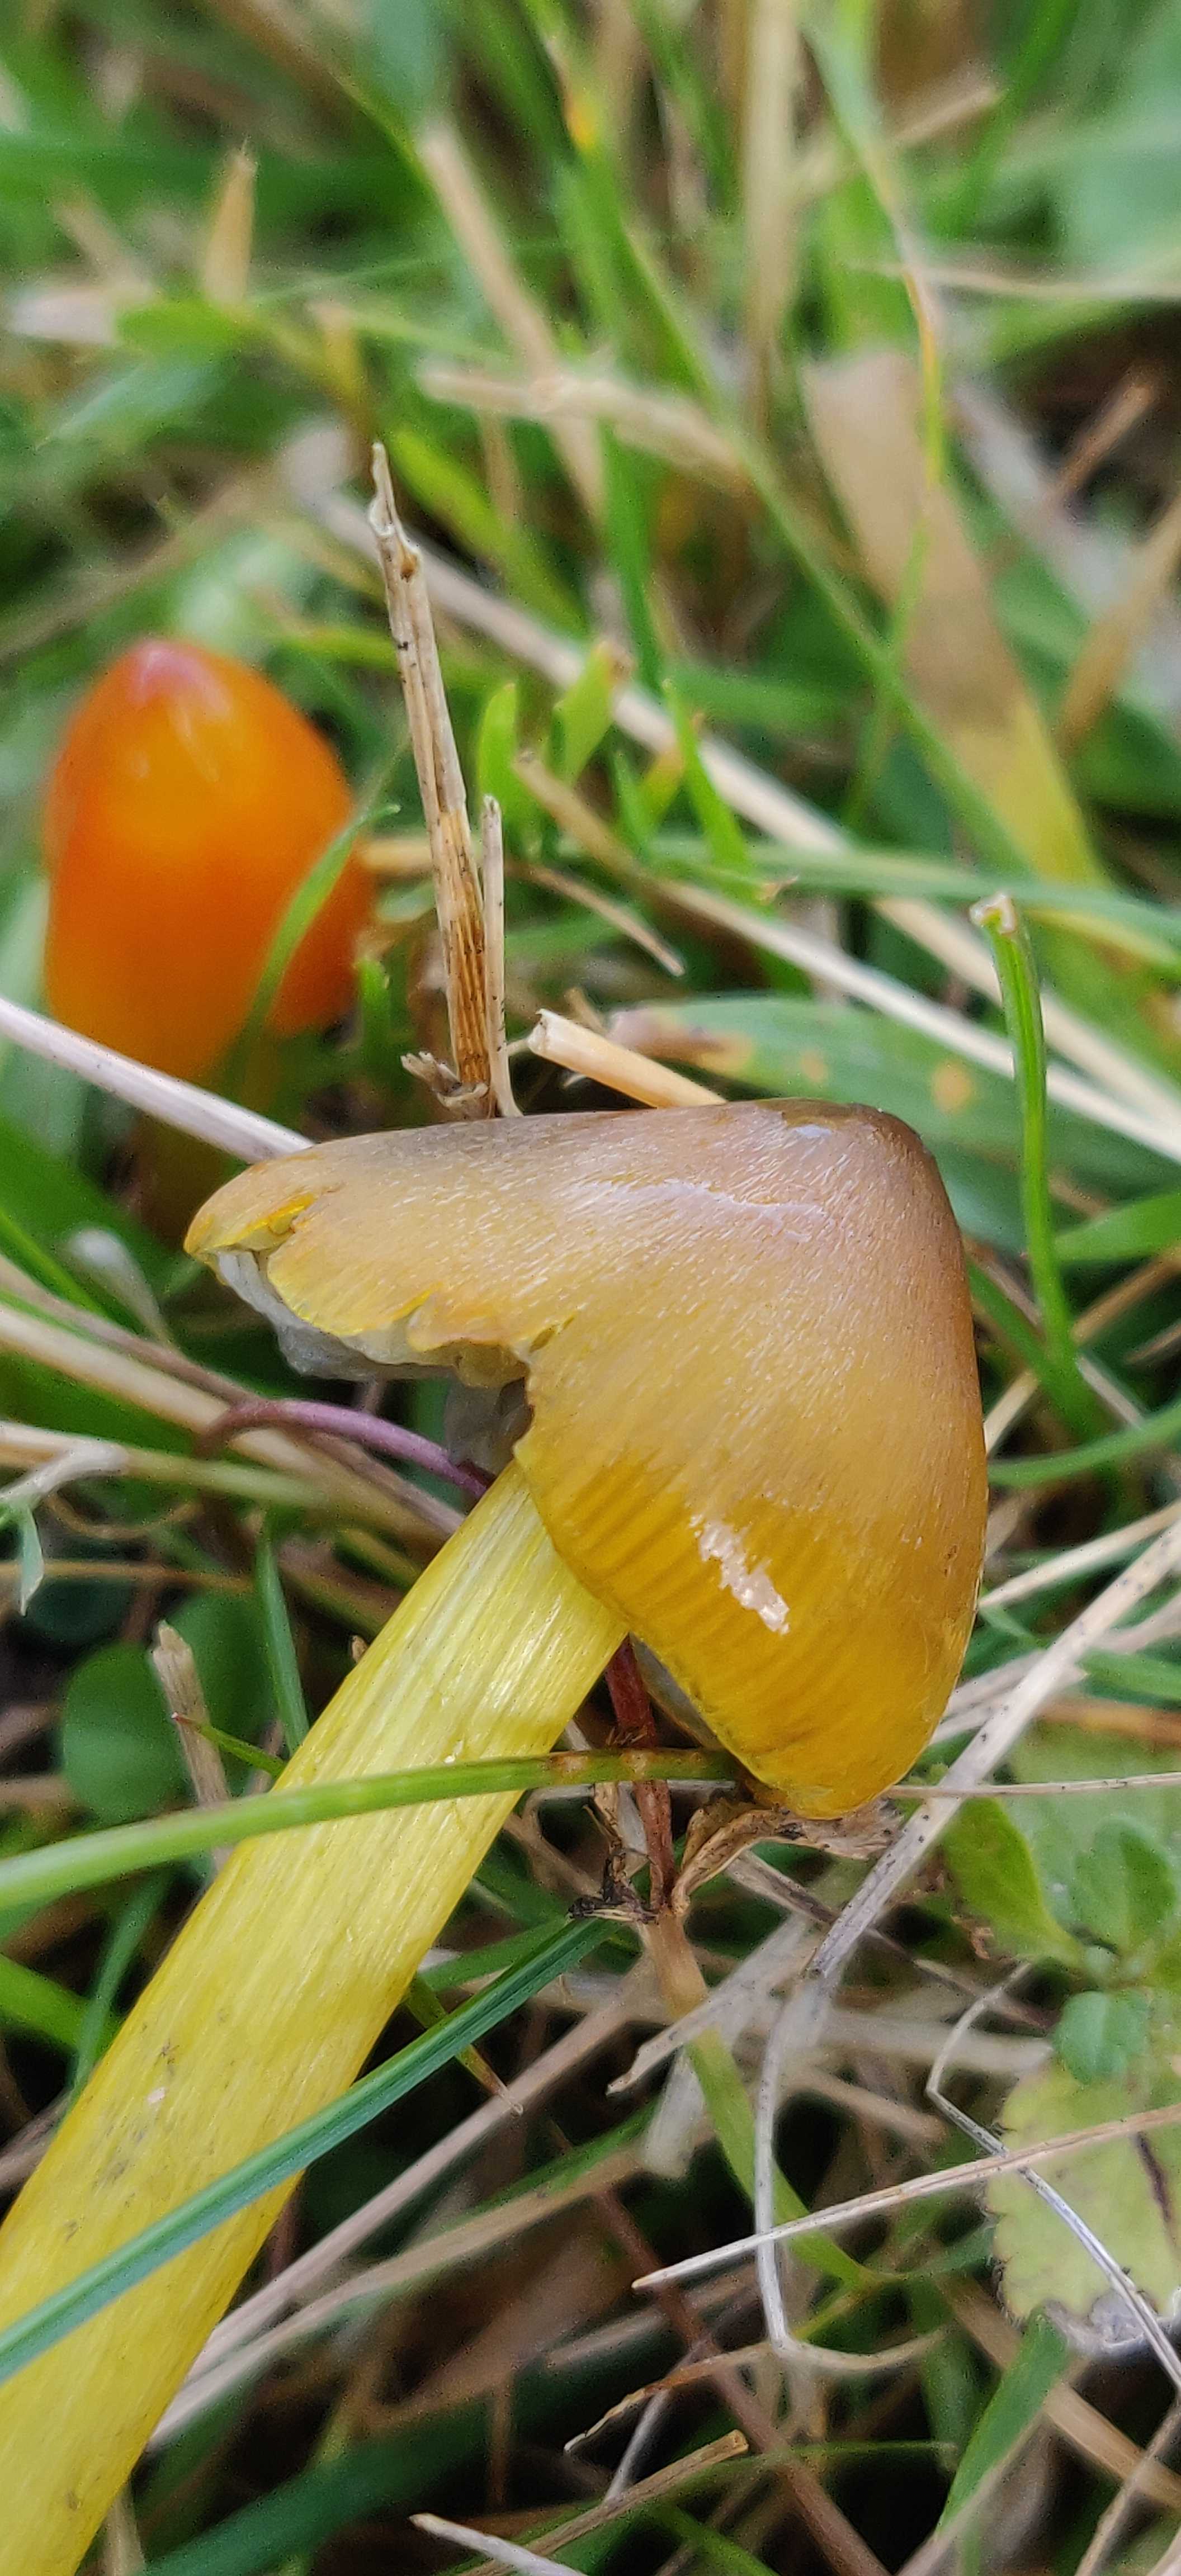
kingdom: Fungi
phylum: Basidiomycota
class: Agaricomycetes
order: Agaricales
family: Hygrophoraceae
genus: Hygrocybe
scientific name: Hygrocybe conica
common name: kegle-vokshat
